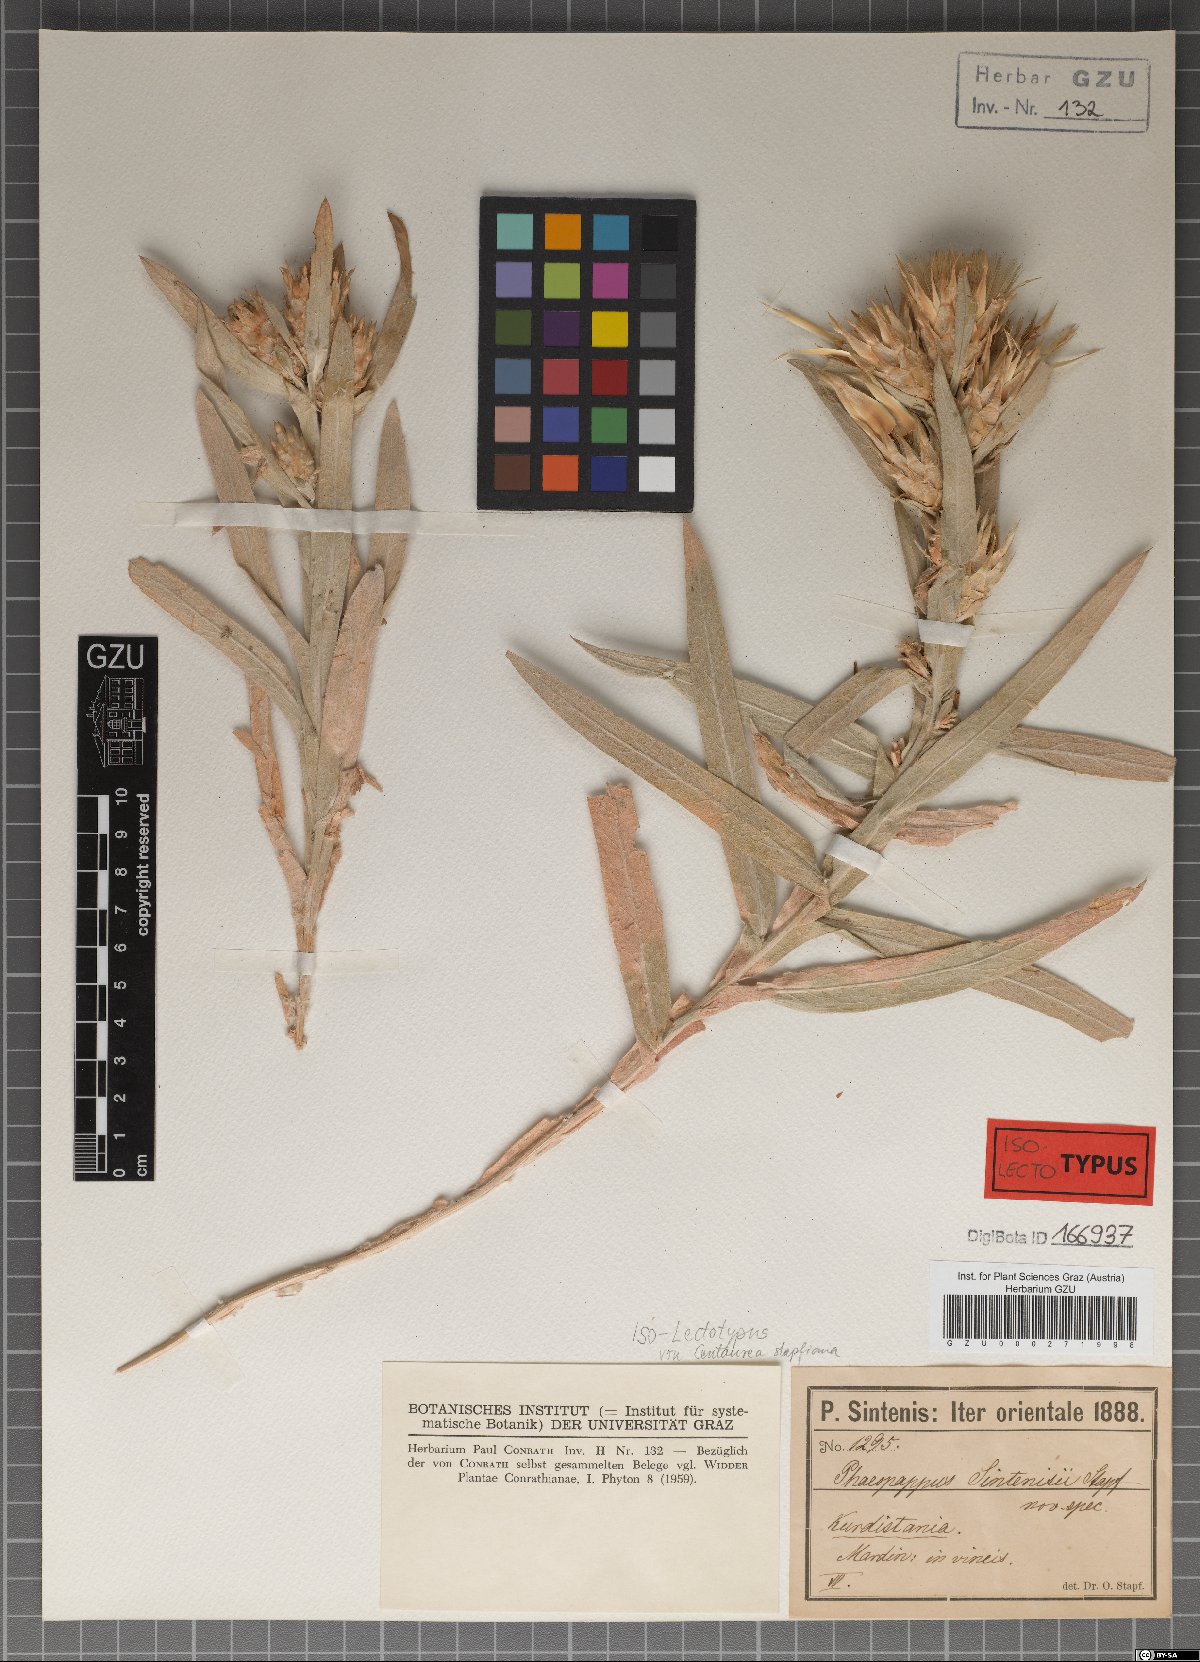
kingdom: Plantae
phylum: Tracheophyta
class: Magnoliopsida
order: Asterales
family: Asteraceae
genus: Centaurea
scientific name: Centaurea stapfiana
